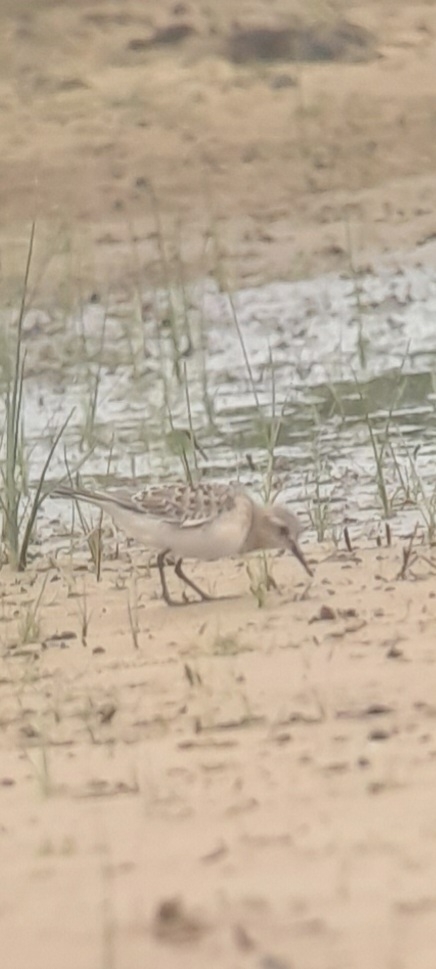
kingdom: Animalia
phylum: Chordata
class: Aves
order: Charadriiformes
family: Scolopacidae
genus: Calidris
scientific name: Calidris bairdii
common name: Bairdsryle
